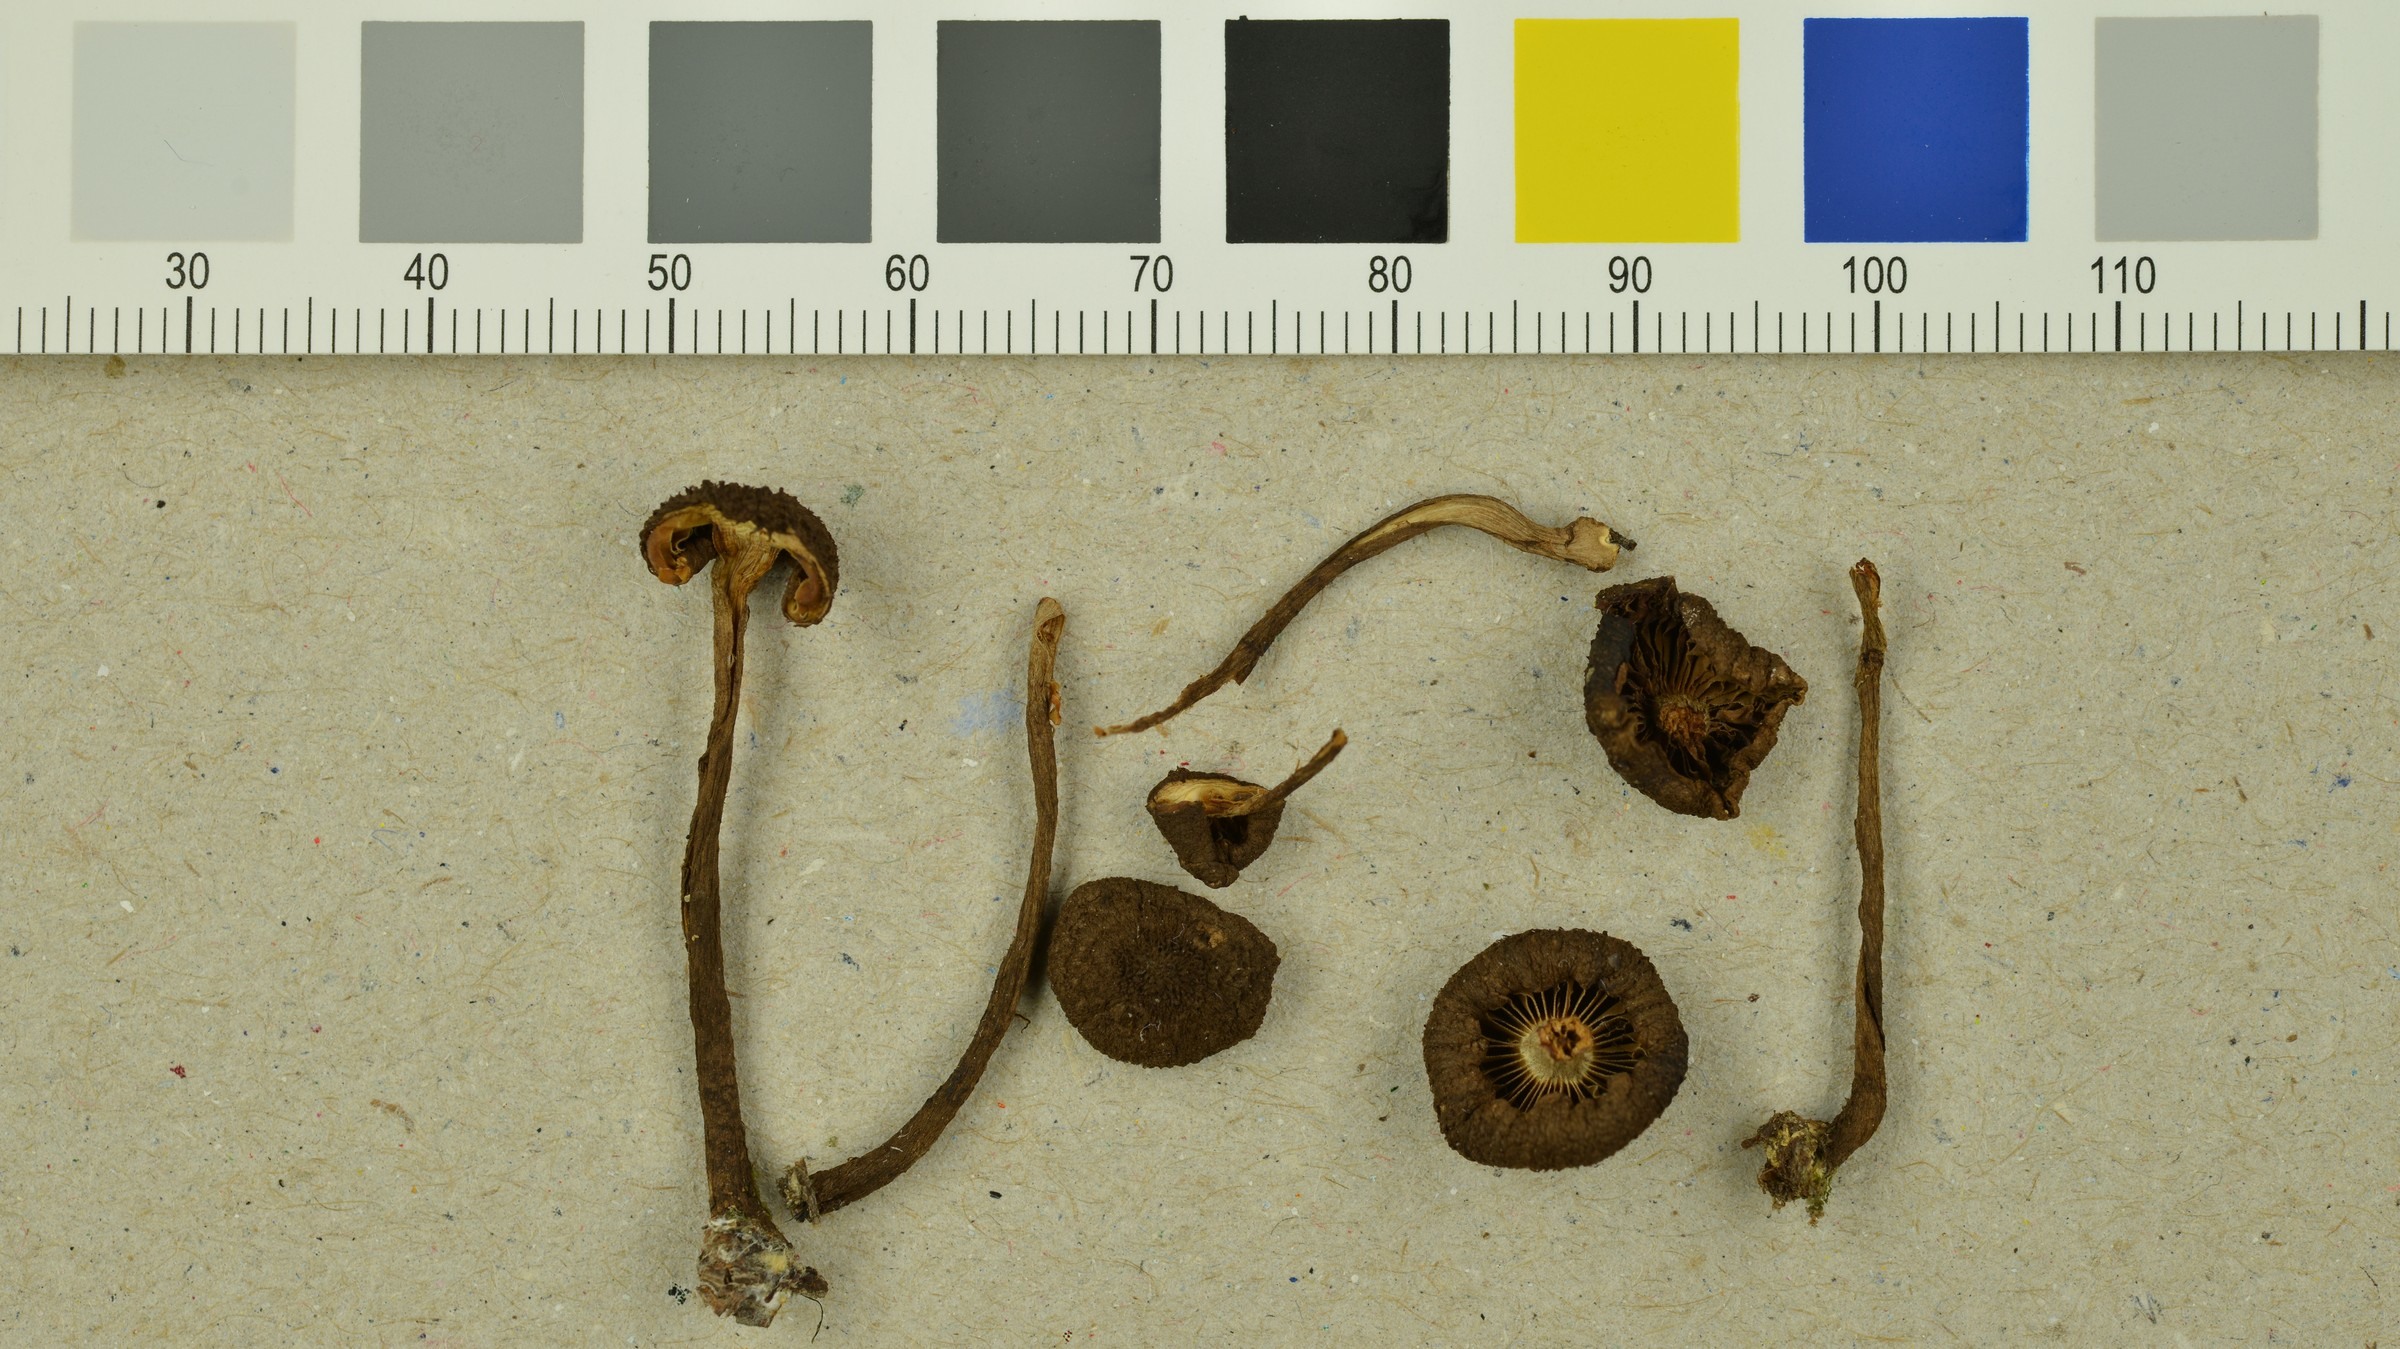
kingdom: Fungi
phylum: Basidiomycota
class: Agaricomycetes
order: Agaricales
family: Inocybaceae
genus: Inocybe
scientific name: Inocybe relicina
